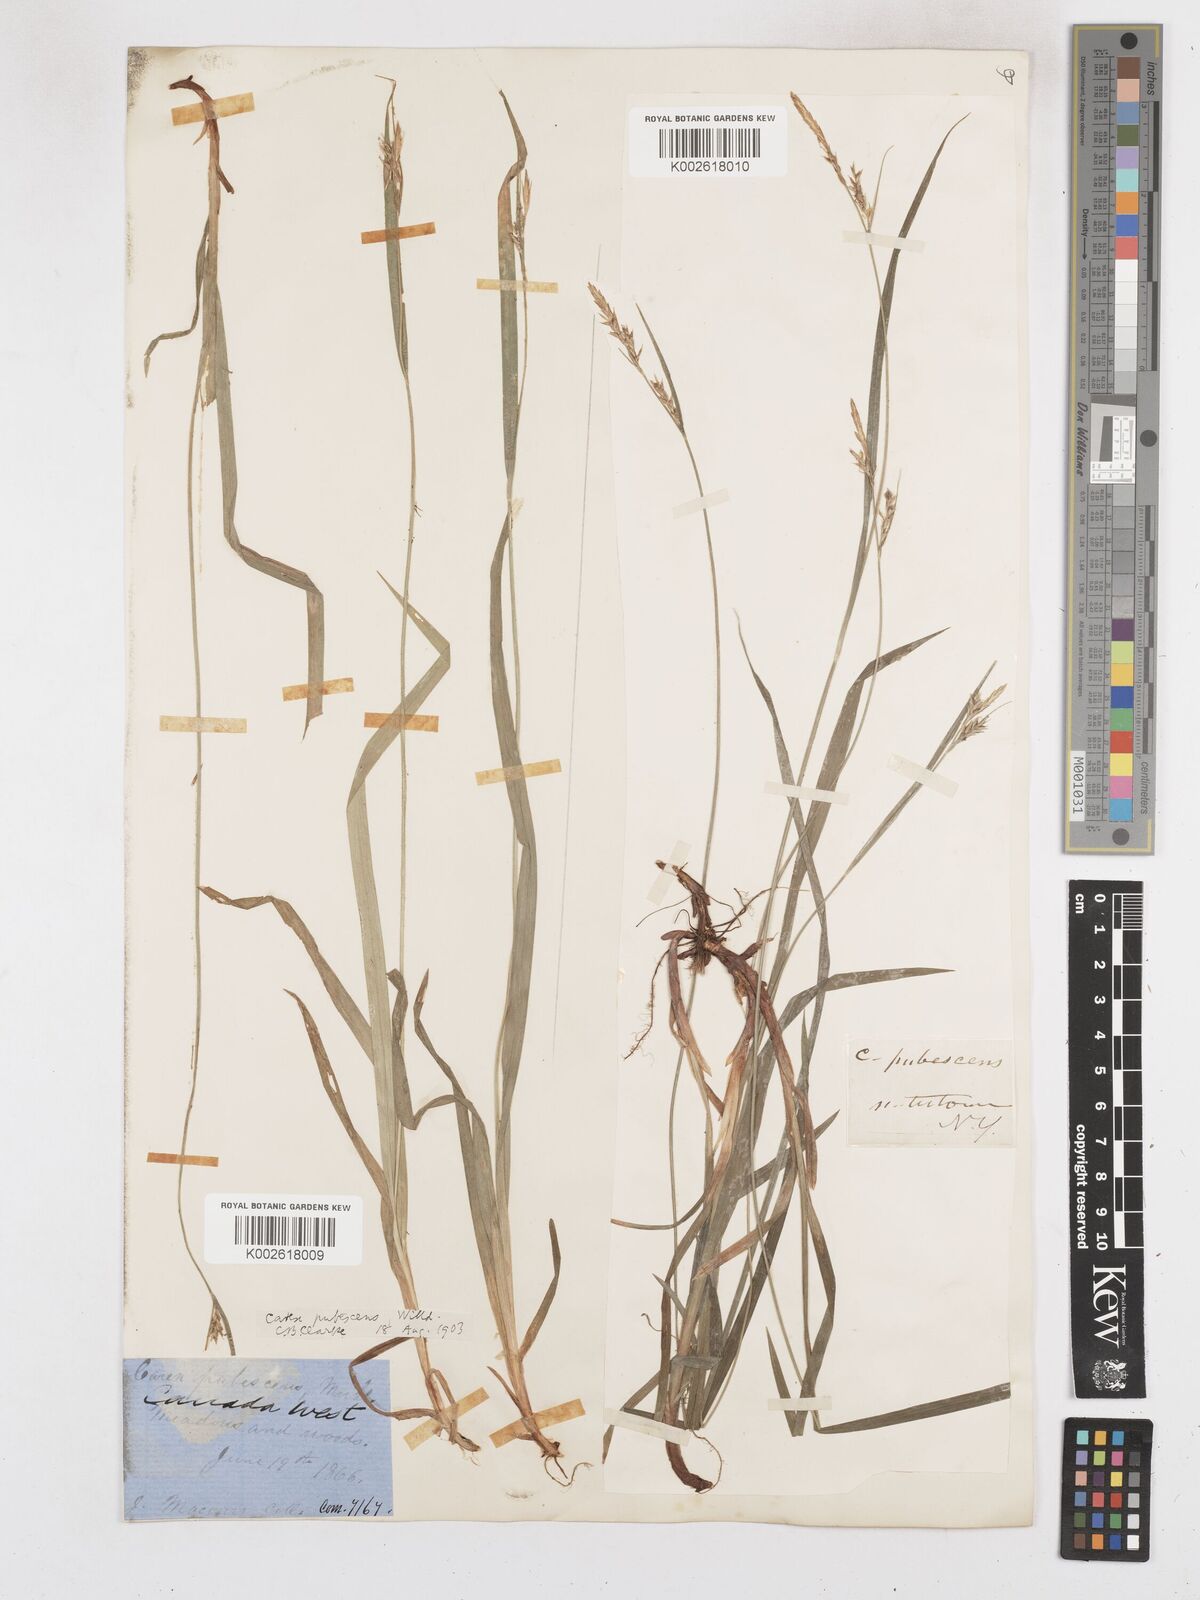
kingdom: Plantae
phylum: Tracheophyta
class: Liliopsida
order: Poales
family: Cyperaceae
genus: Carex
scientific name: Carex hirtifolia
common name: Hairy sedge
